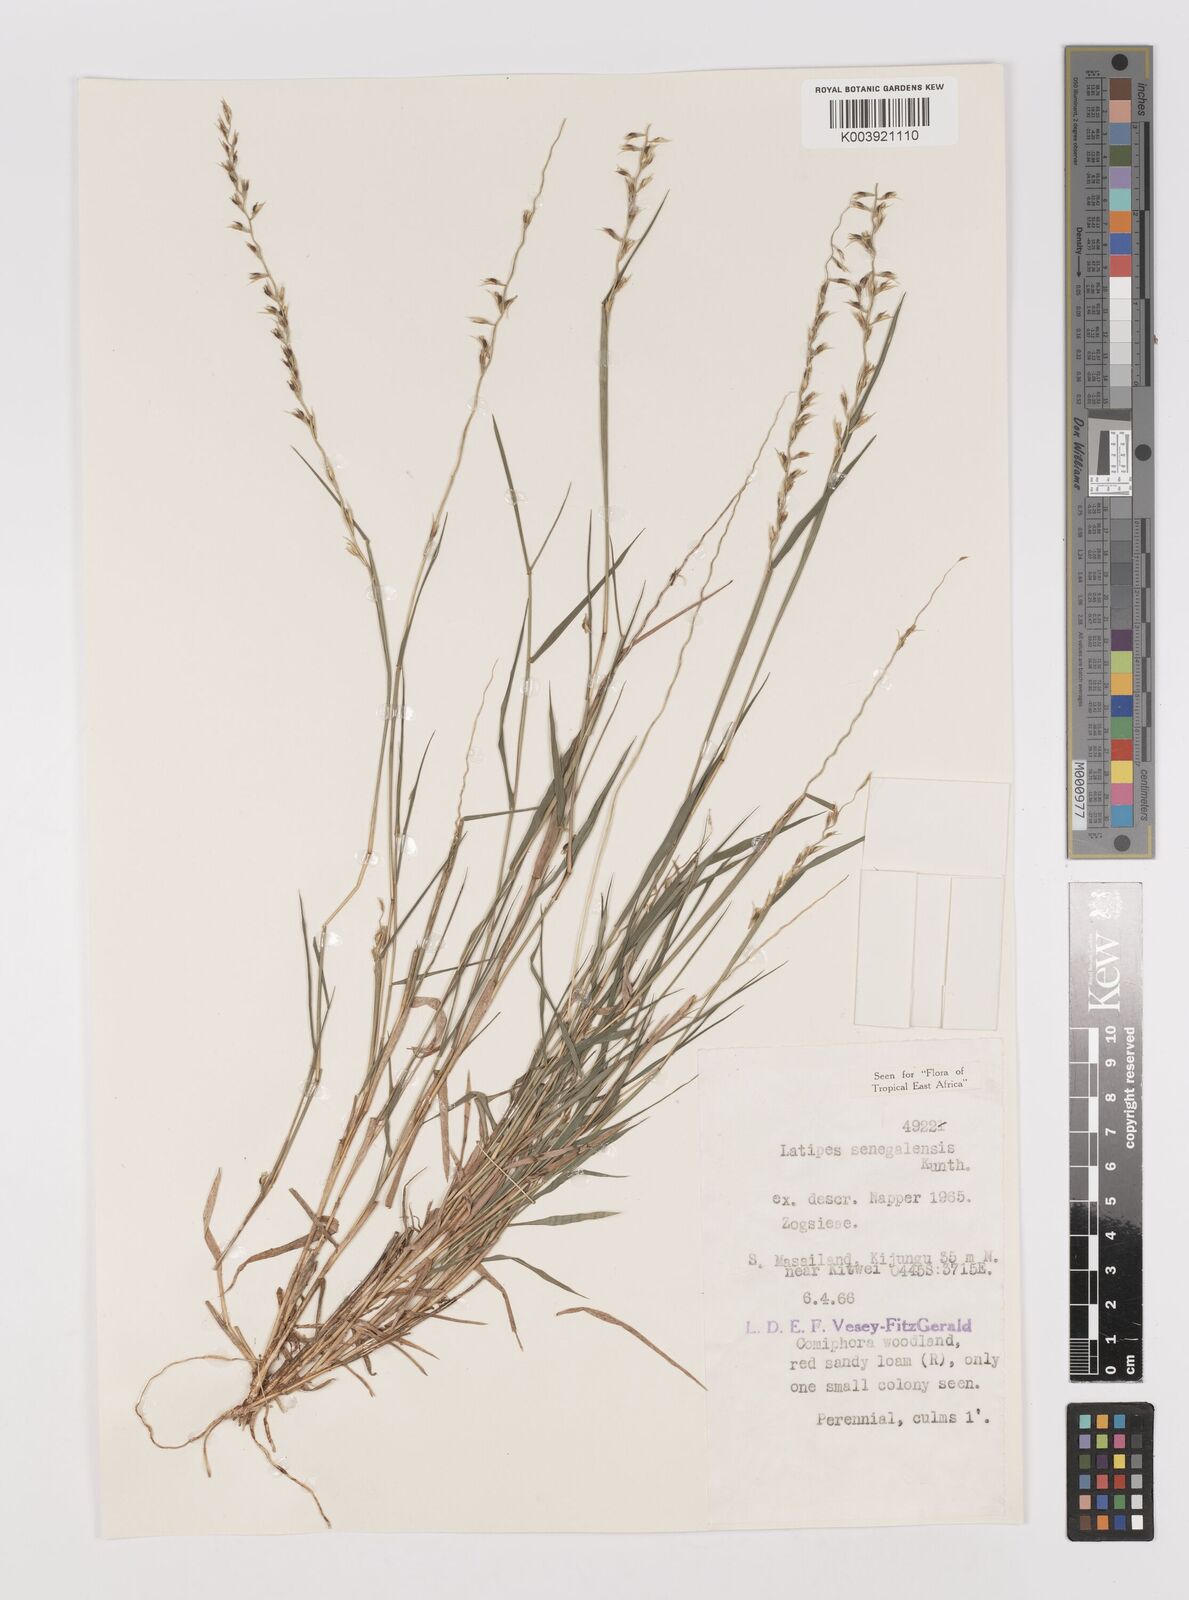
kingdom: Plantae
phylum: Tracheophyta
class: Liliopsida
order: Poales
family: Poaceae
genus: Leptothrium
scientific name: Leptothrium senegalense
